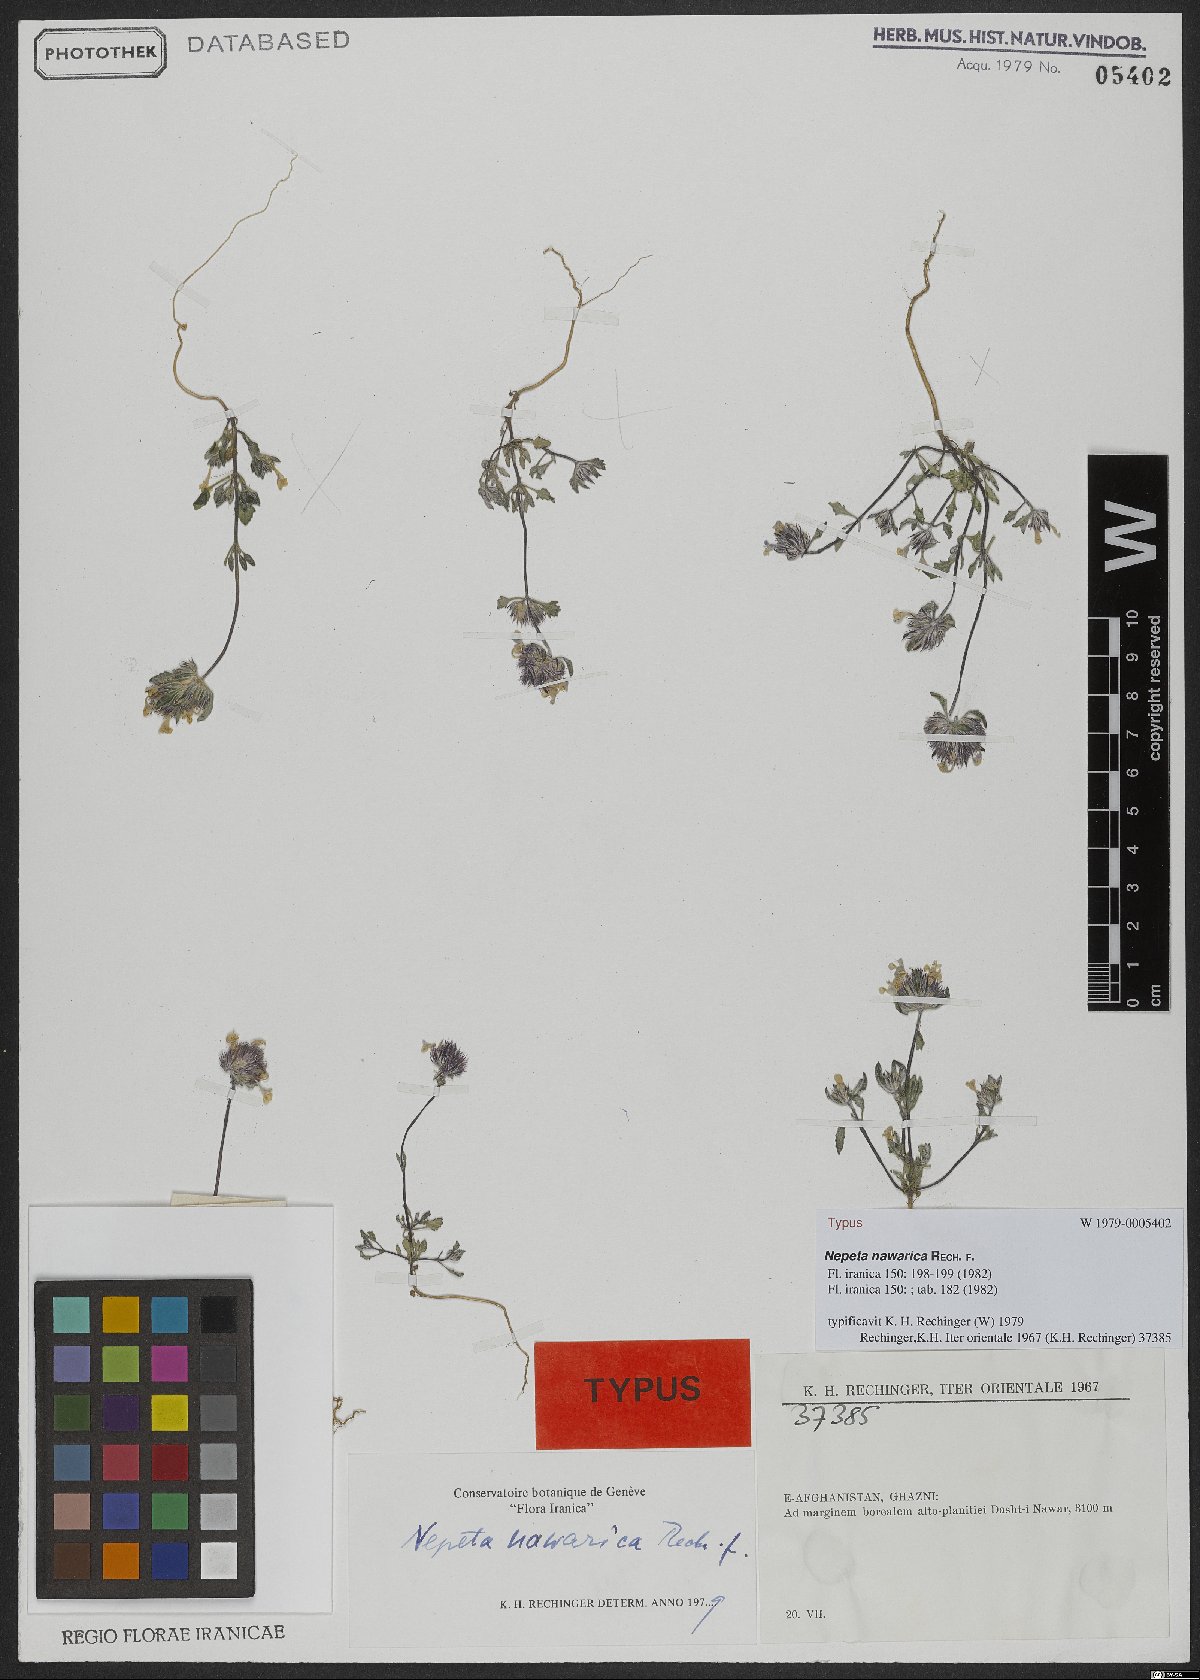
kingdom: Plantae
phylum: Tracheophyta
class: Magnoliopsida
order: Lamiales
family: Lamiaceae
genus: Nepeta
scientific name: Nepeta nawarica
